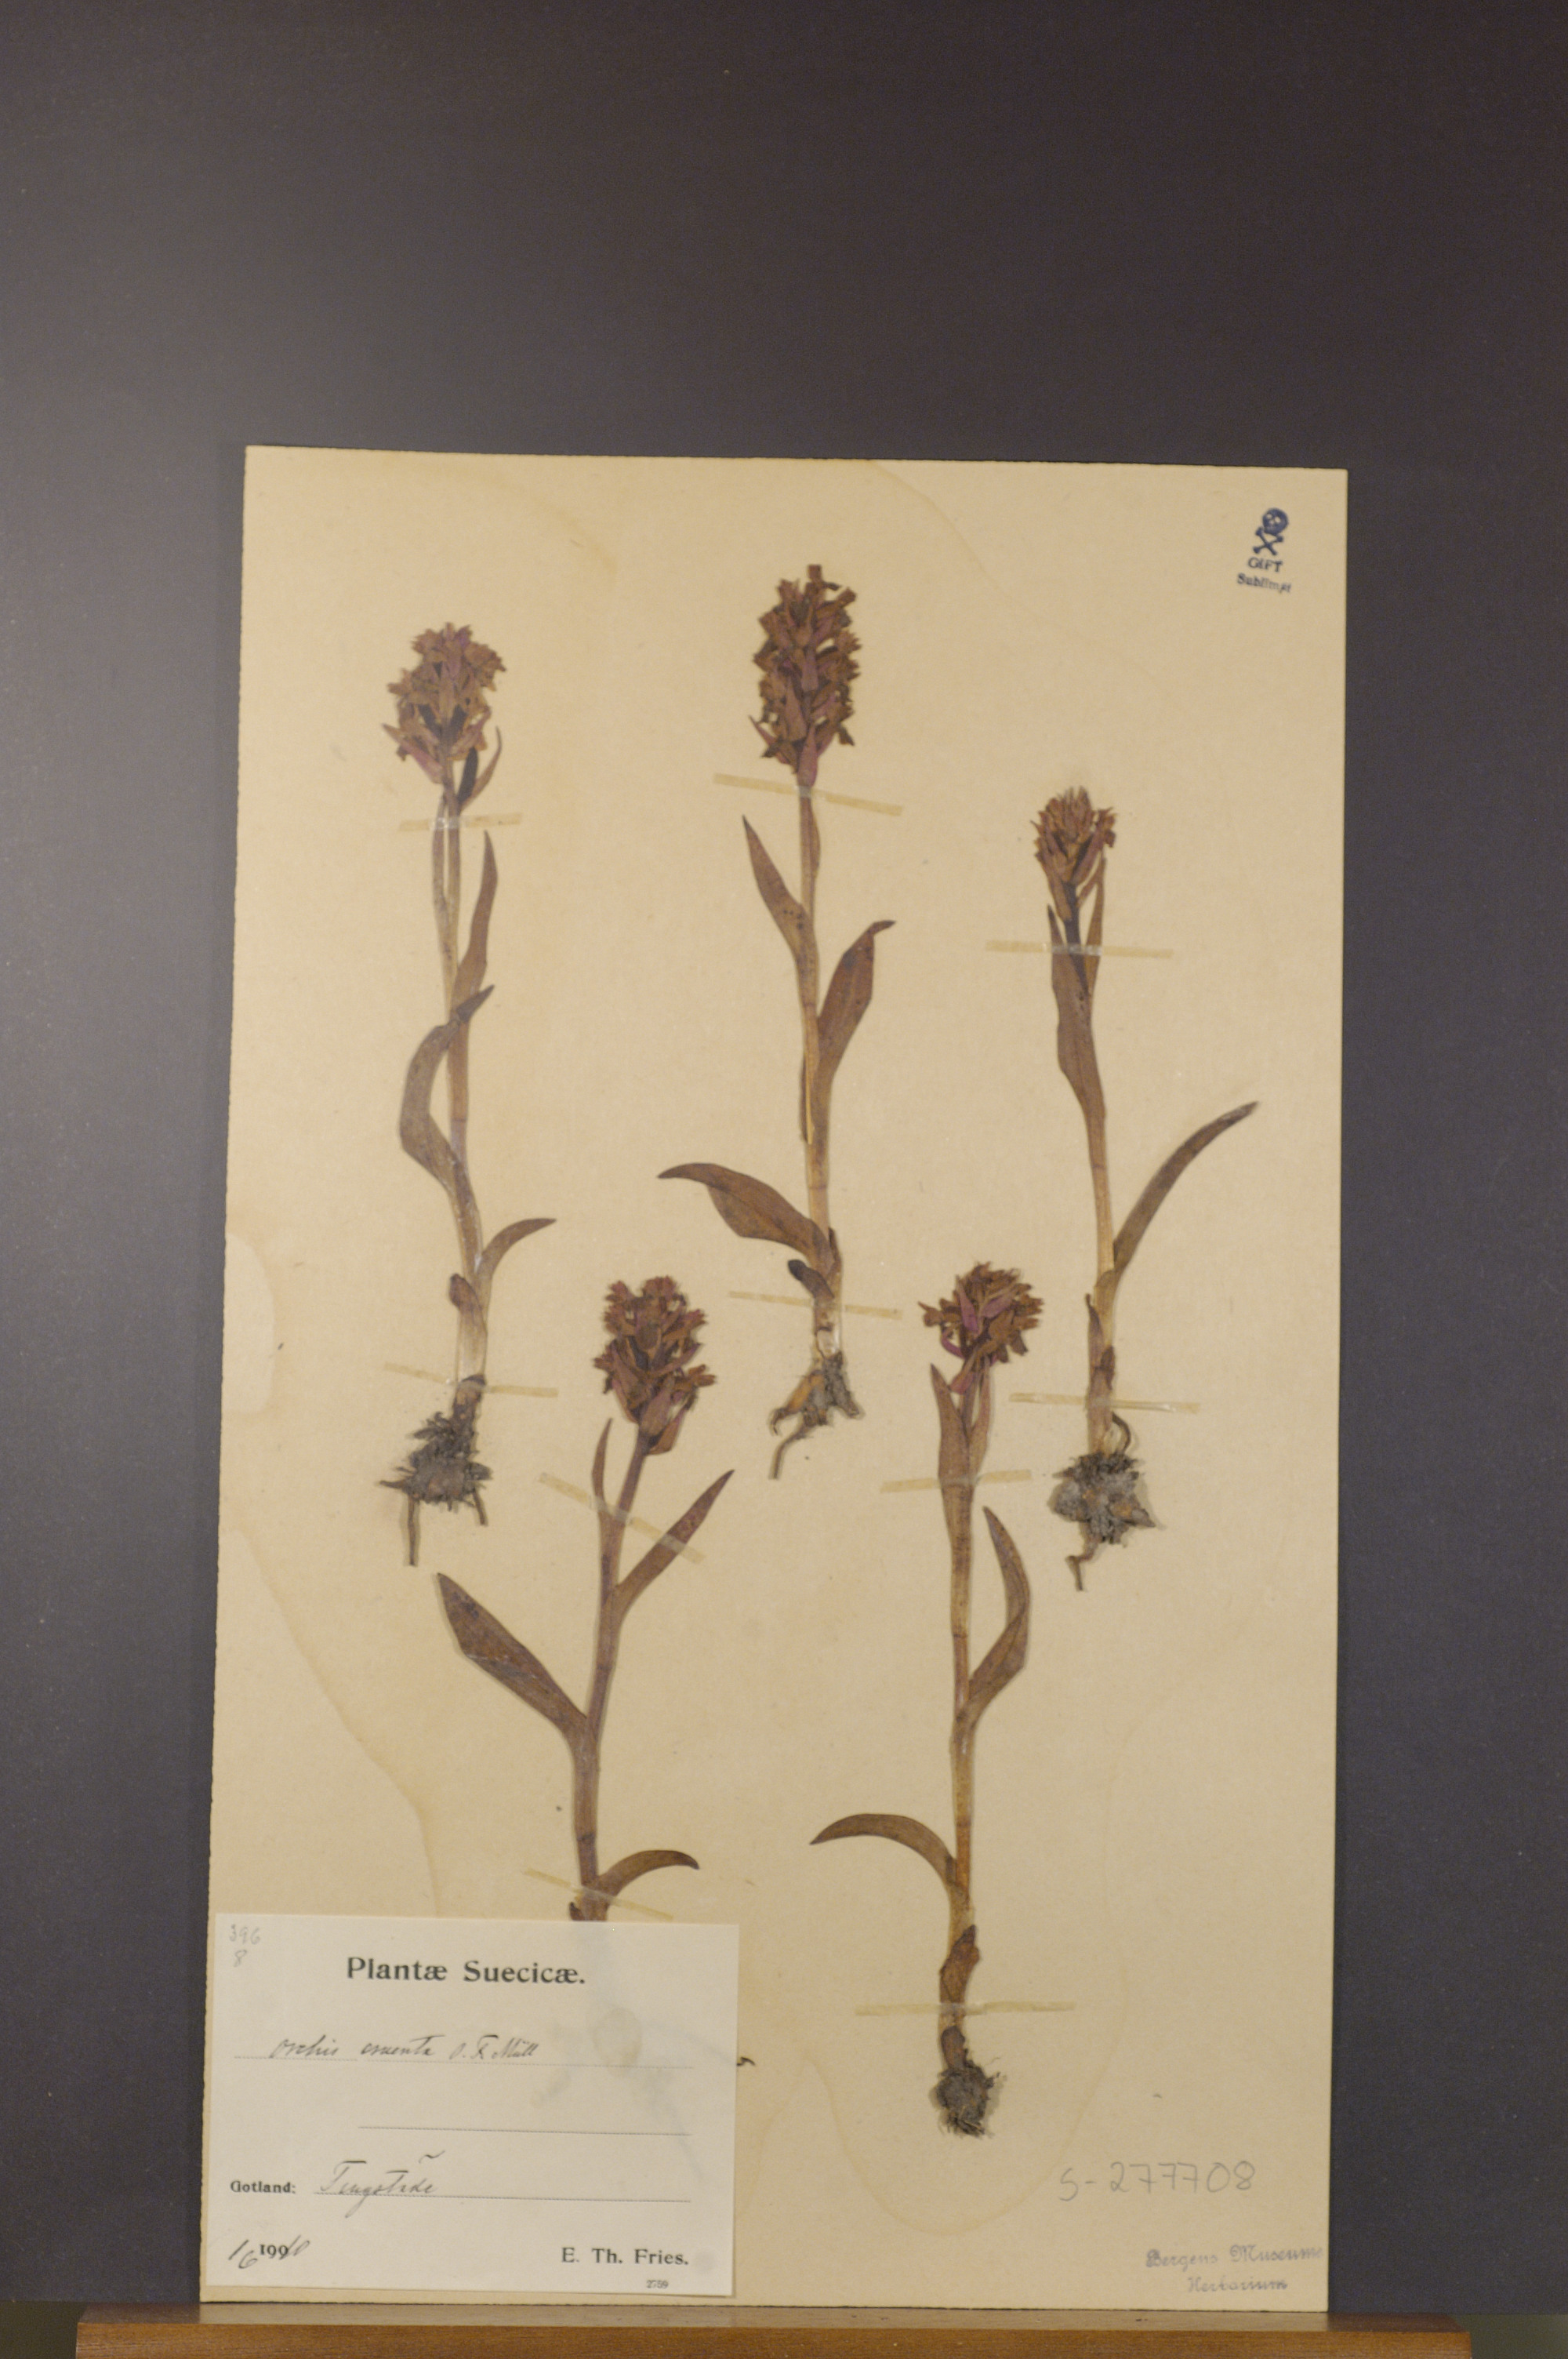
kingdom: Plantae
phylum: Tracheophyta
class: Liliopsida
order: Asparagales
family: Orchidaceae
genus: Dactylorhiza
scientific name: Dactylorhiza incarnata
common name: Early marsh-orchid
